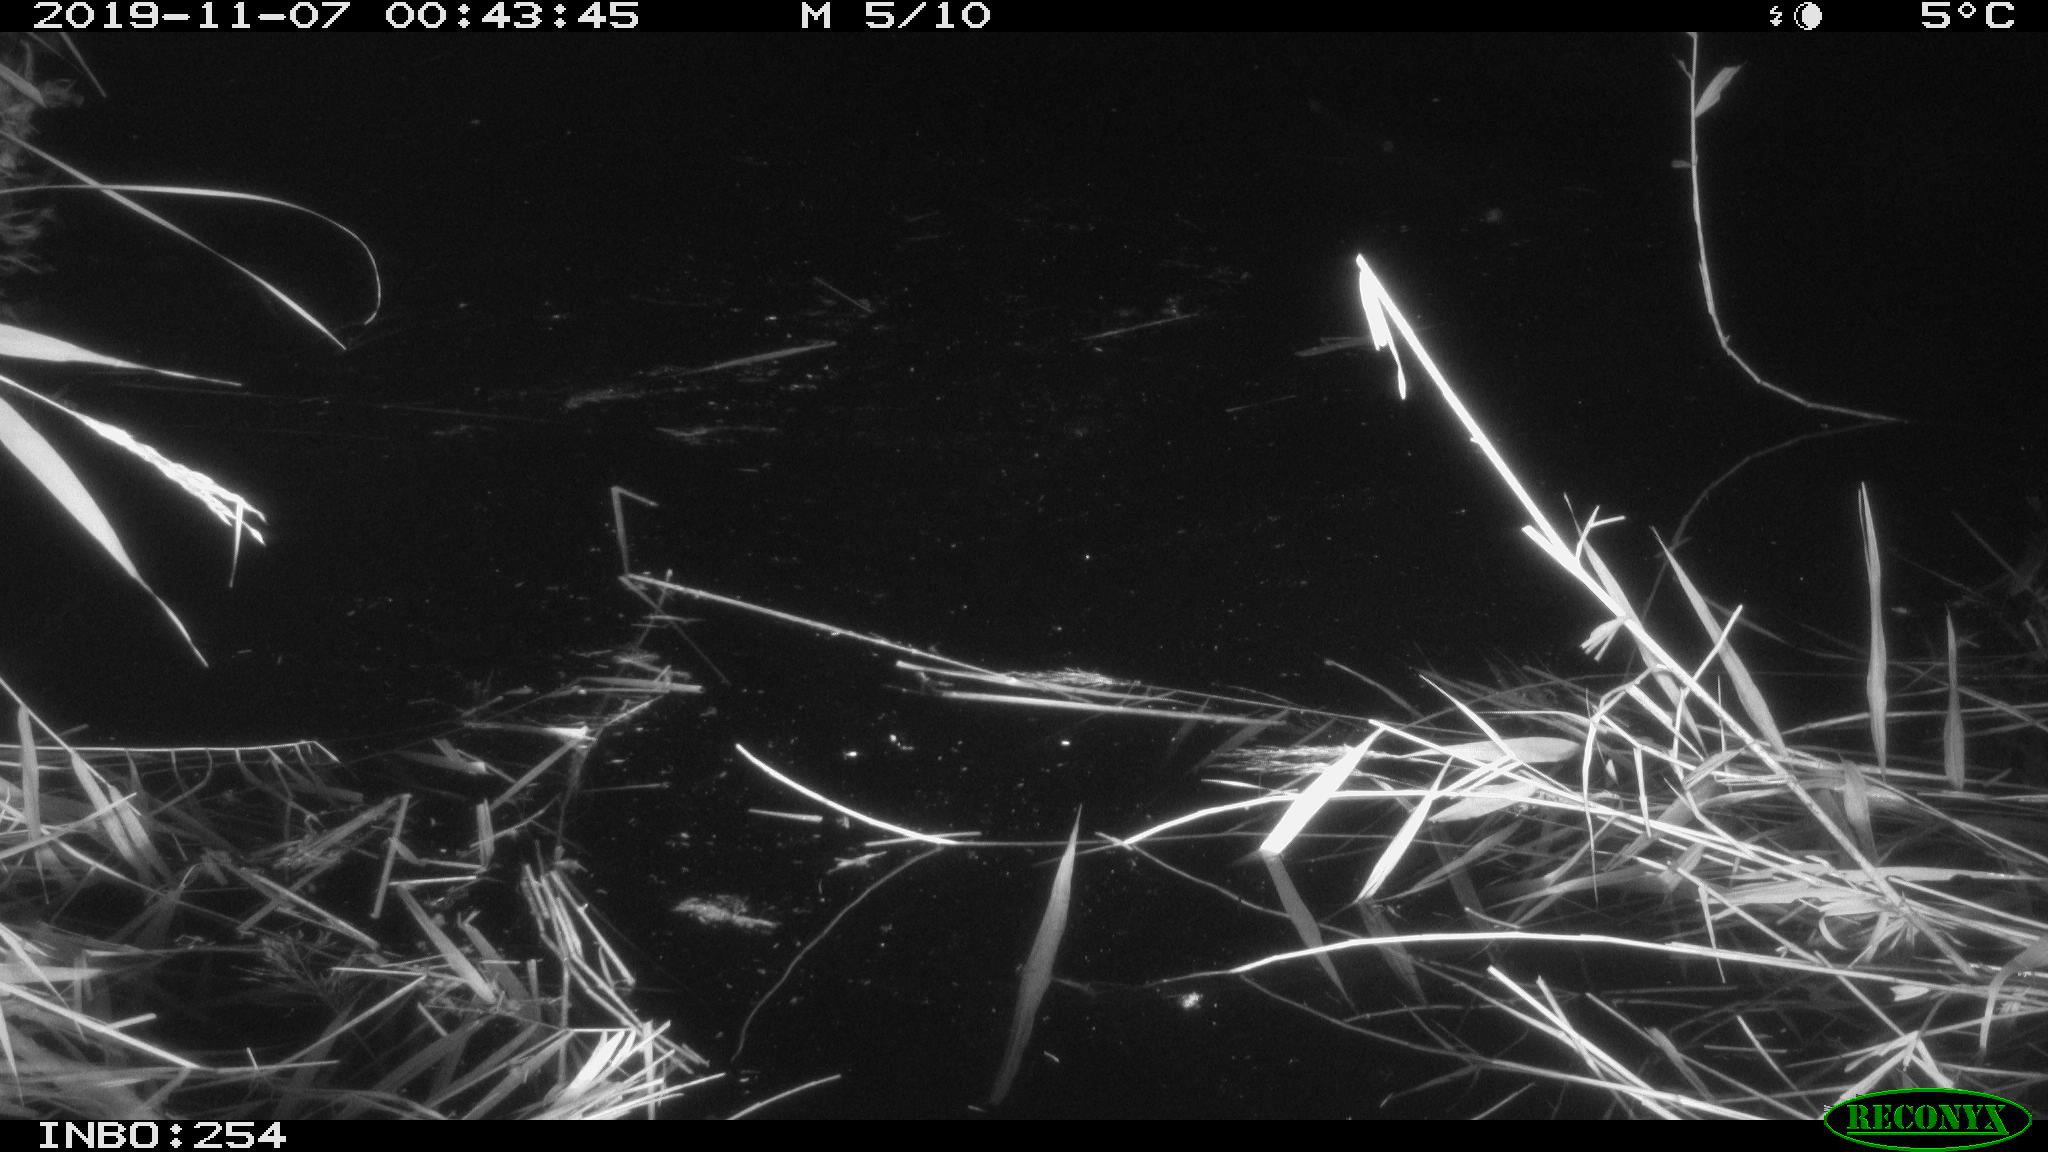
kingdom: Animalia
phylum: Chordata
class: Mammalia
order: Rodentia
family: Muridae
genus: Rattus
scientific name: Rattus norvegicus
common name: Brown rat
